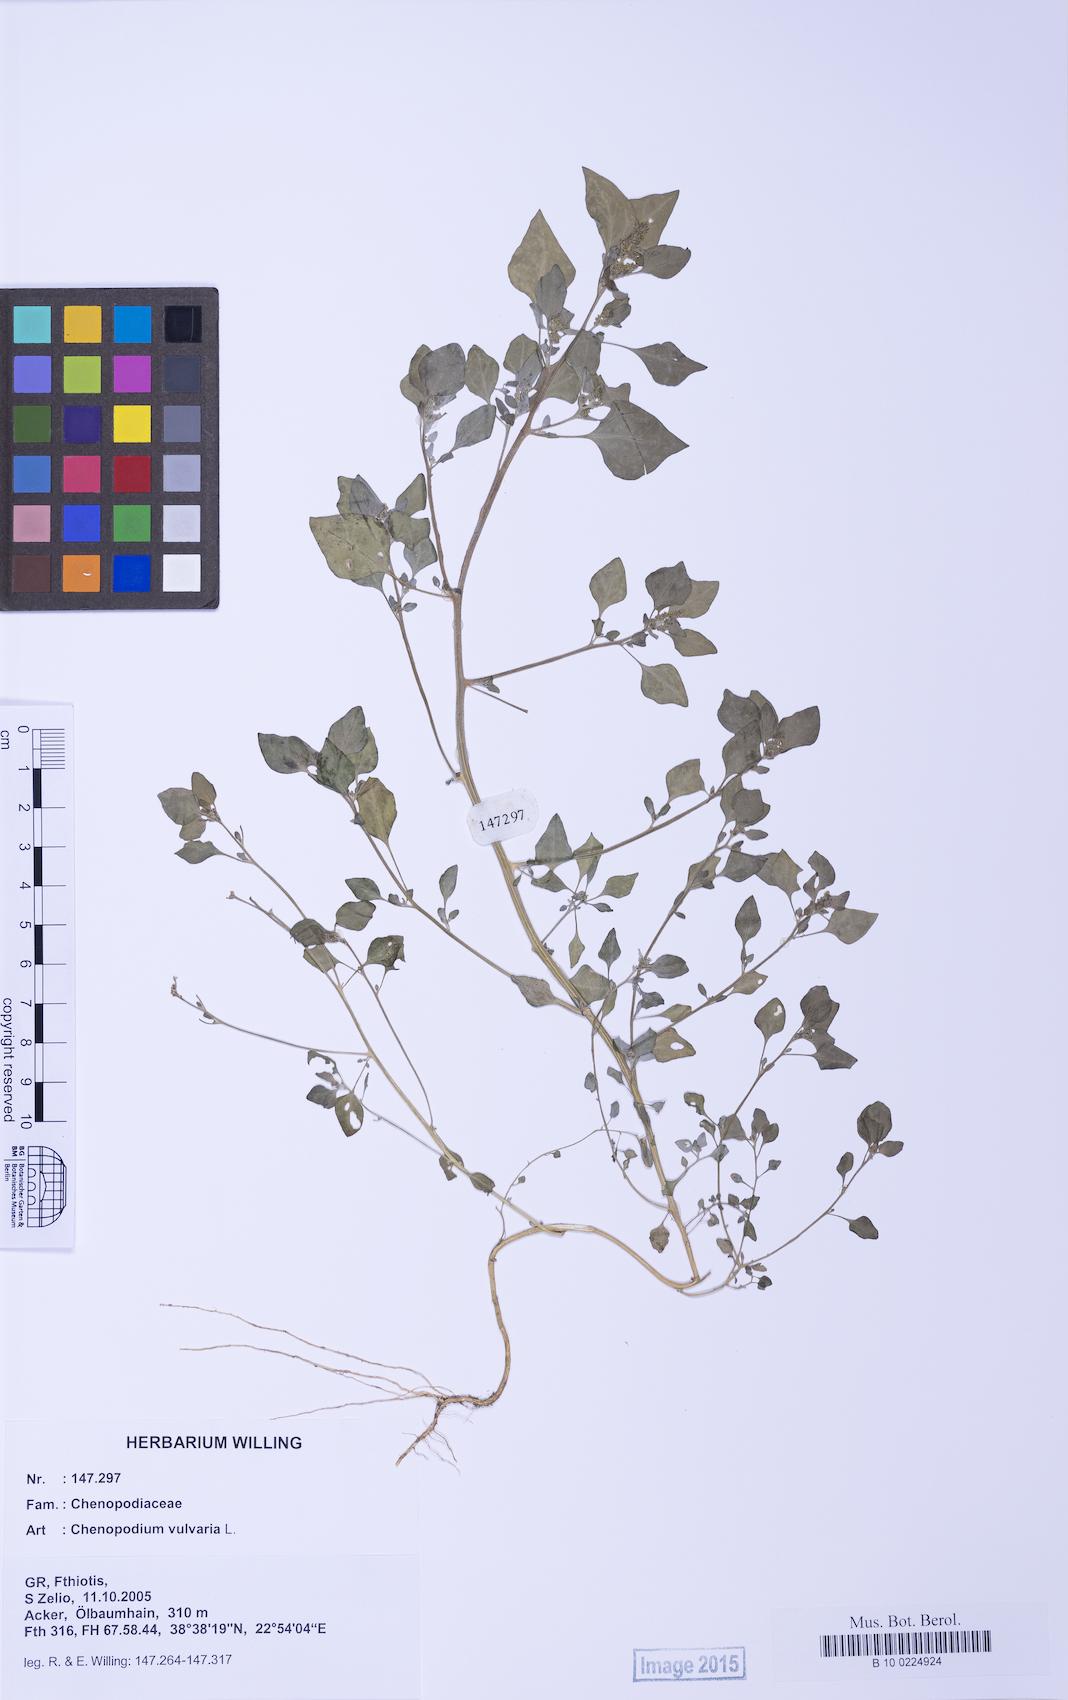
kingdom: Plantae
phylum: Tracheophyta
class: Magnoliopsida
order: Caryophyllales
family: Amaranthaceae
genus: Chenopodium
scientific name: Chenopodium vulvaria
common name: Stinking goosefoot
